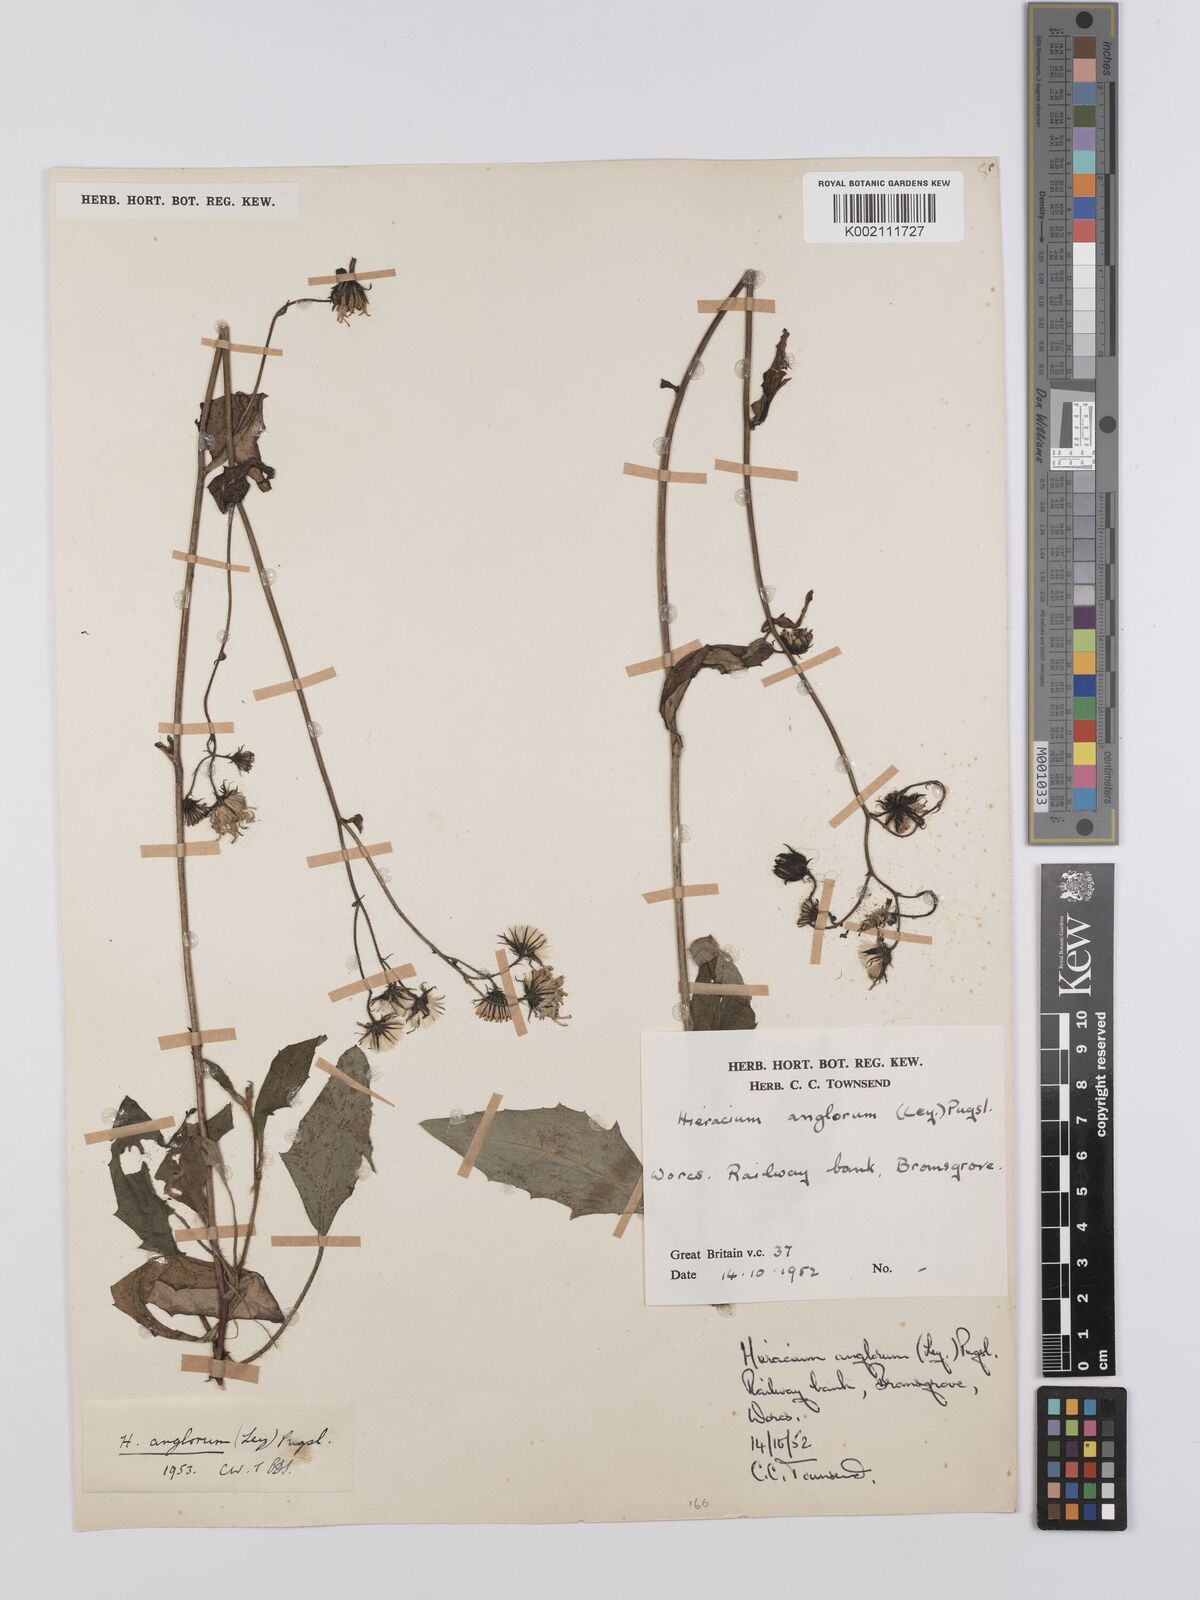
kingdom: Plantae
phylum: Tracheophyta
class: Magnoliopsida
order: Asterales
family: Asteraceae
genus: Hieracium
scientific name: Hieracium anglorum
